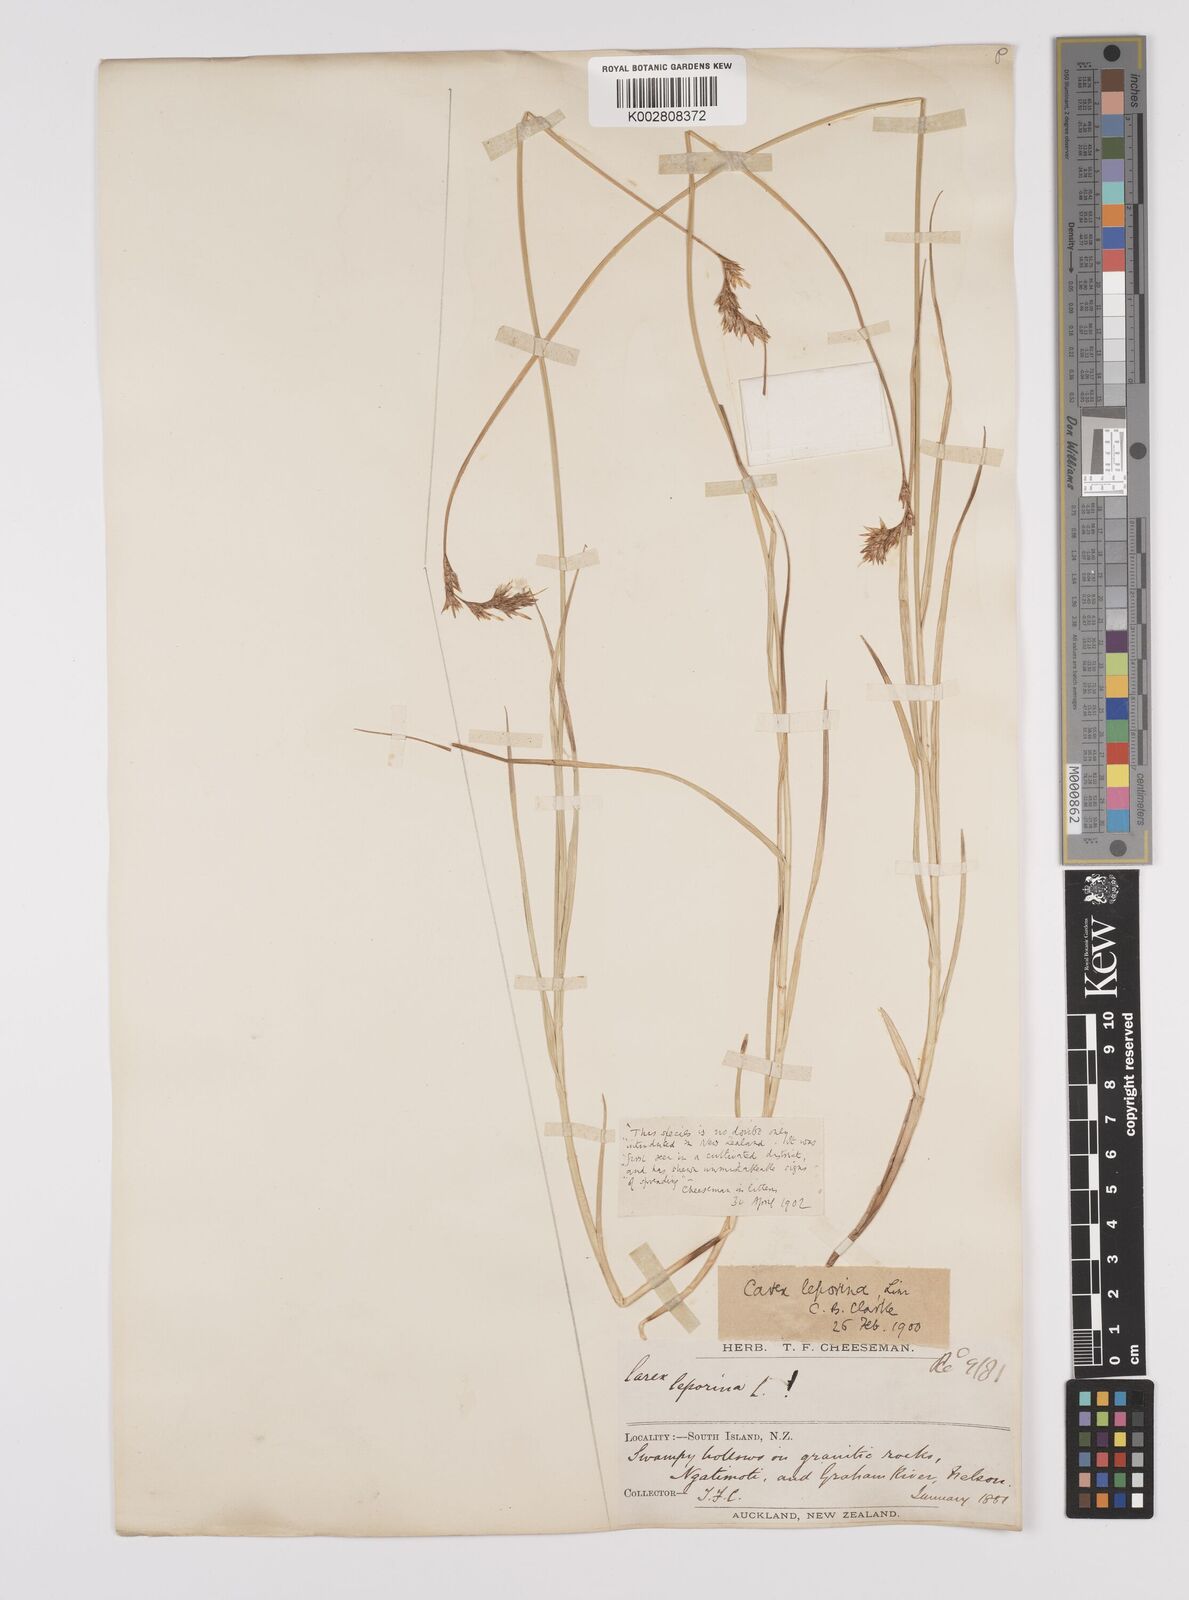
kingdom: Plantae
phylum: Tracheophyta
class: Liliopsida
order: Poales
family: Cyperaceae
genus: Carex
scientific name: Carex leporina
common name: Oval sedge
